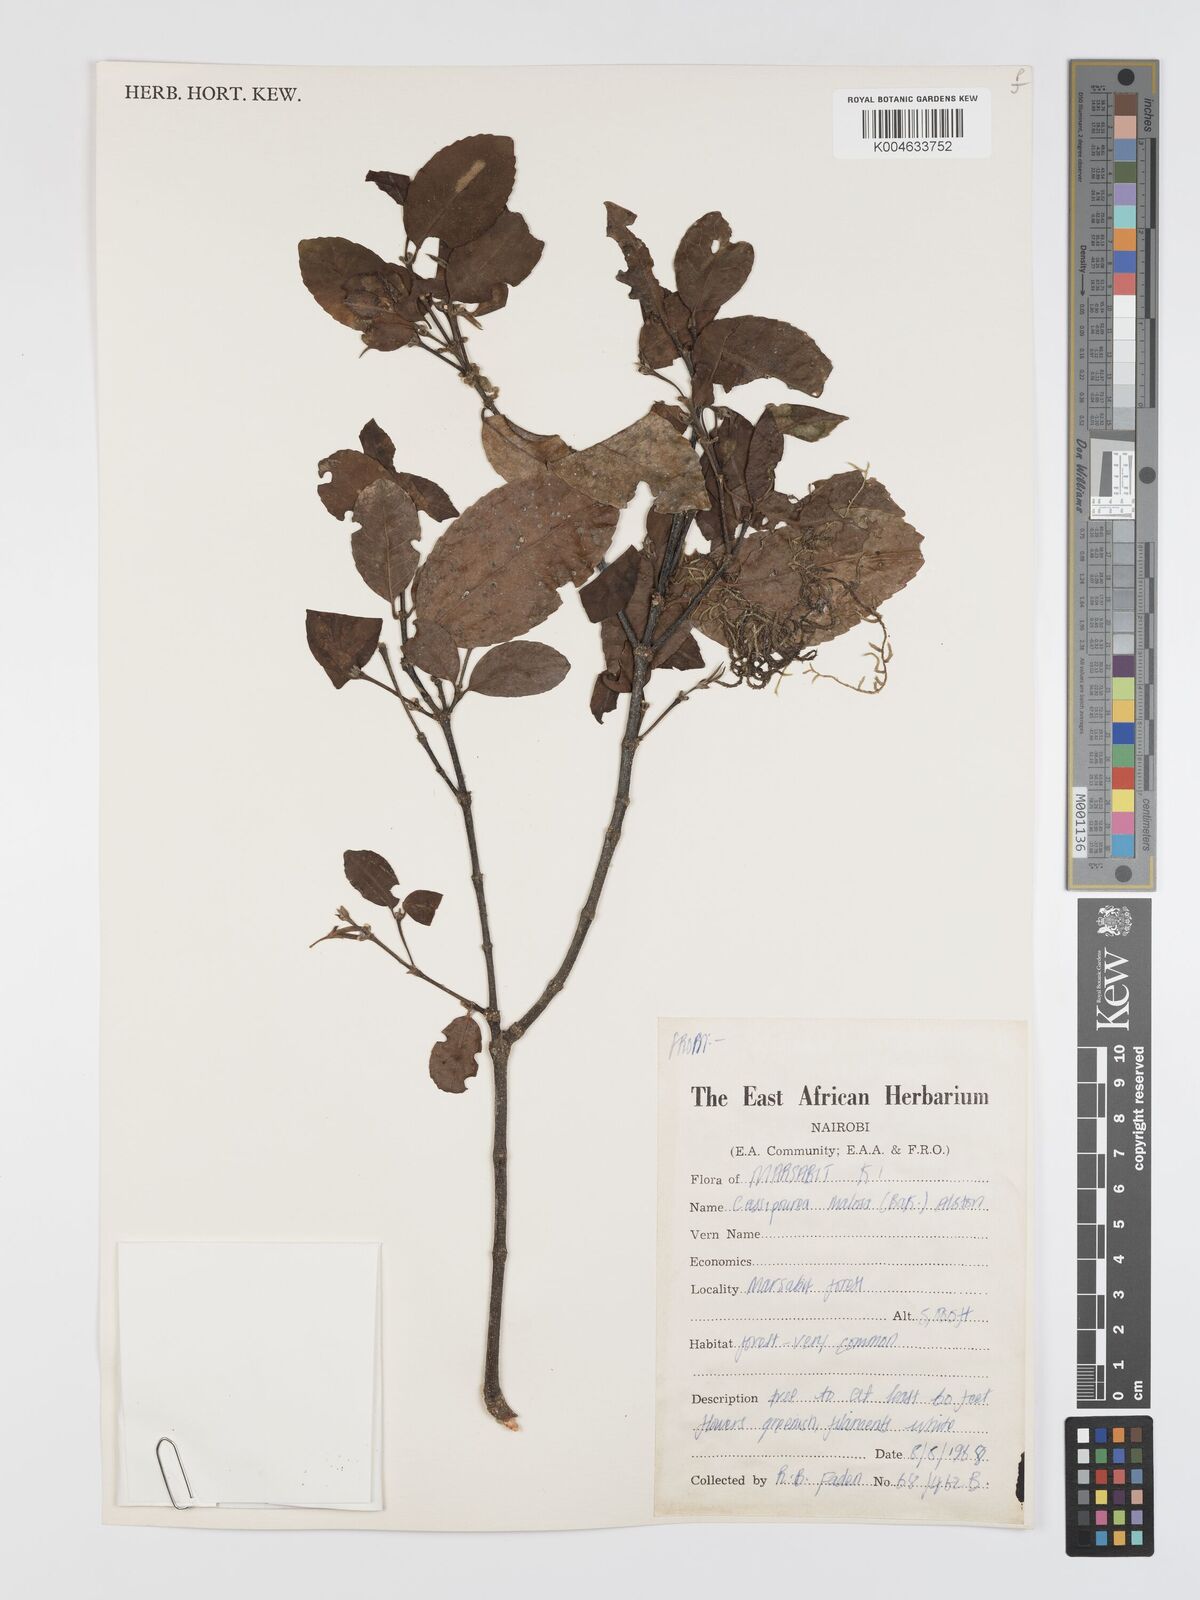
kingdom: Plantae
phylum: Tracheophyta
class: Magnoliopsida
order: Malpighiales
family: Rhizophoraceae
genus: Cassipourea
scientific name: Cassipourea
